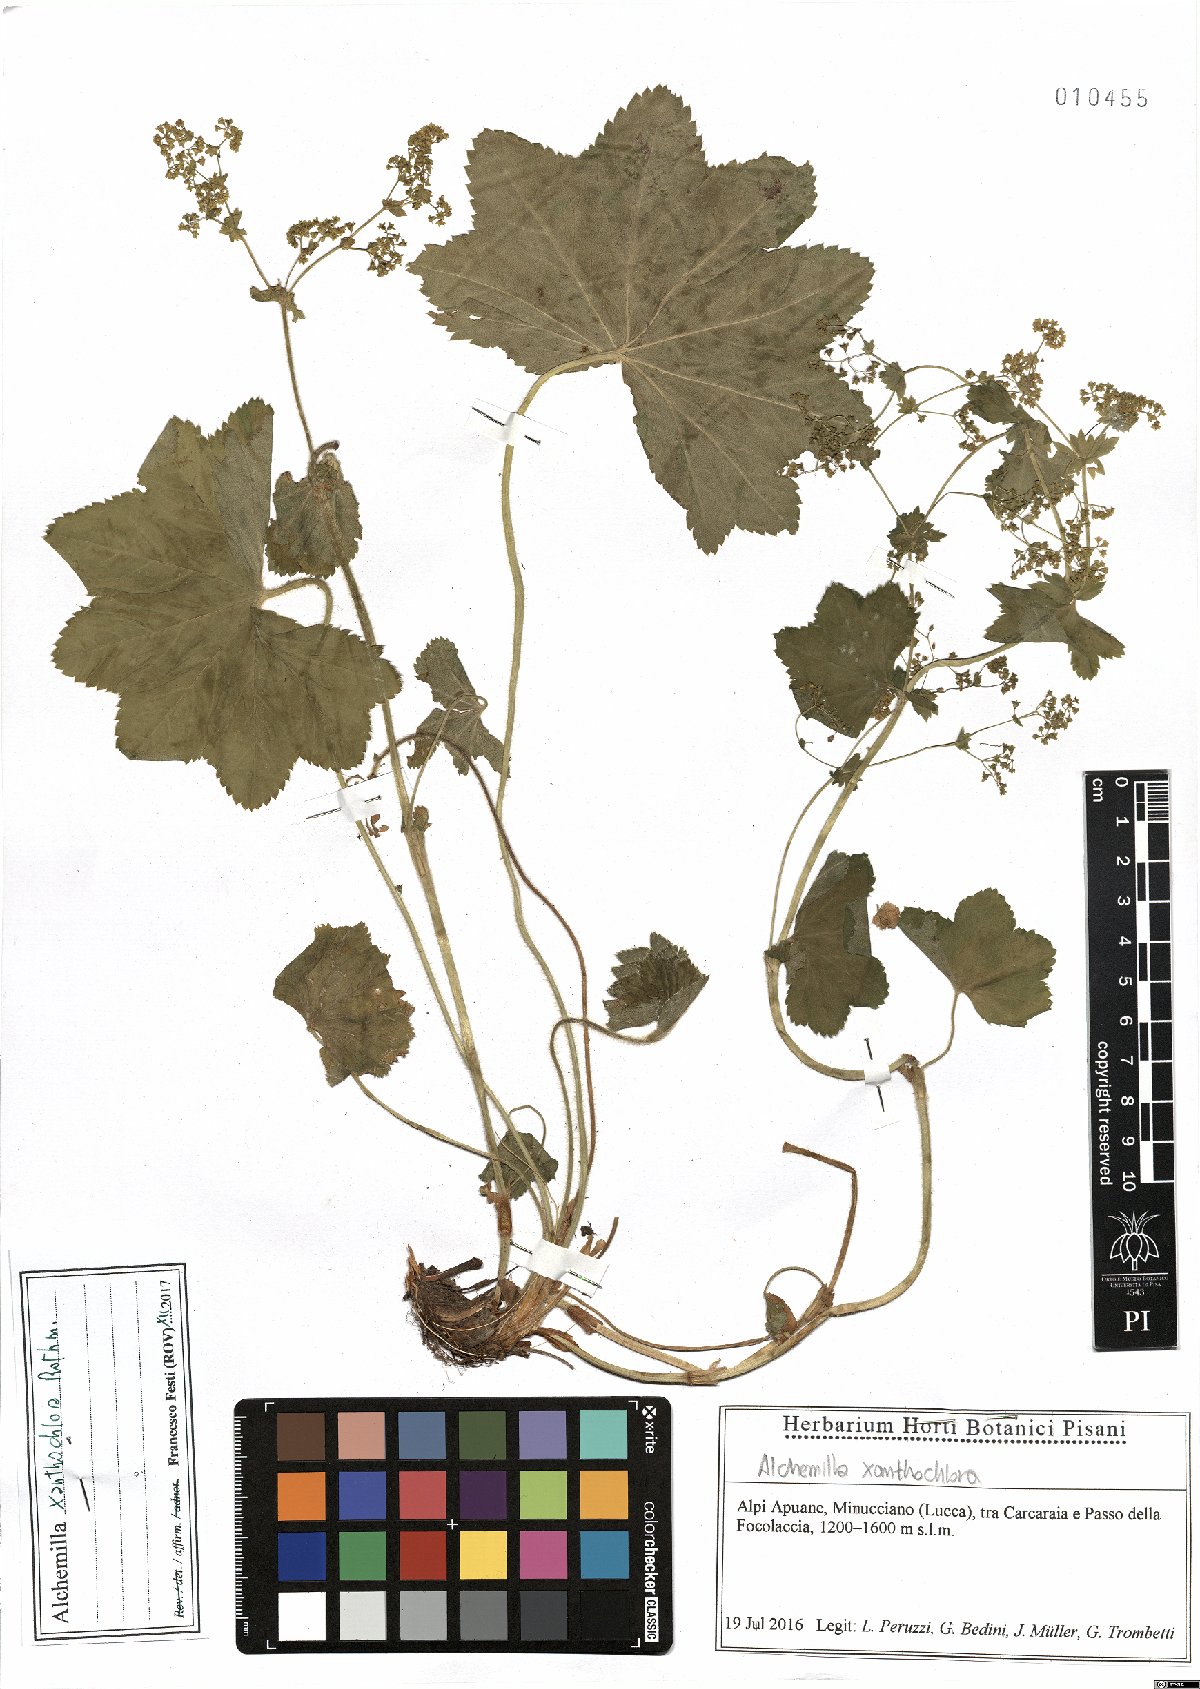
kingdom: Plantae
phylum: Tracheophyta
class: Magnoliopsida
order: Rosales
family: Rosaceae
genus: Alchemilla
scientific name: Alchemilla xanthochlora
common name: Intermediate lady's-mantle
